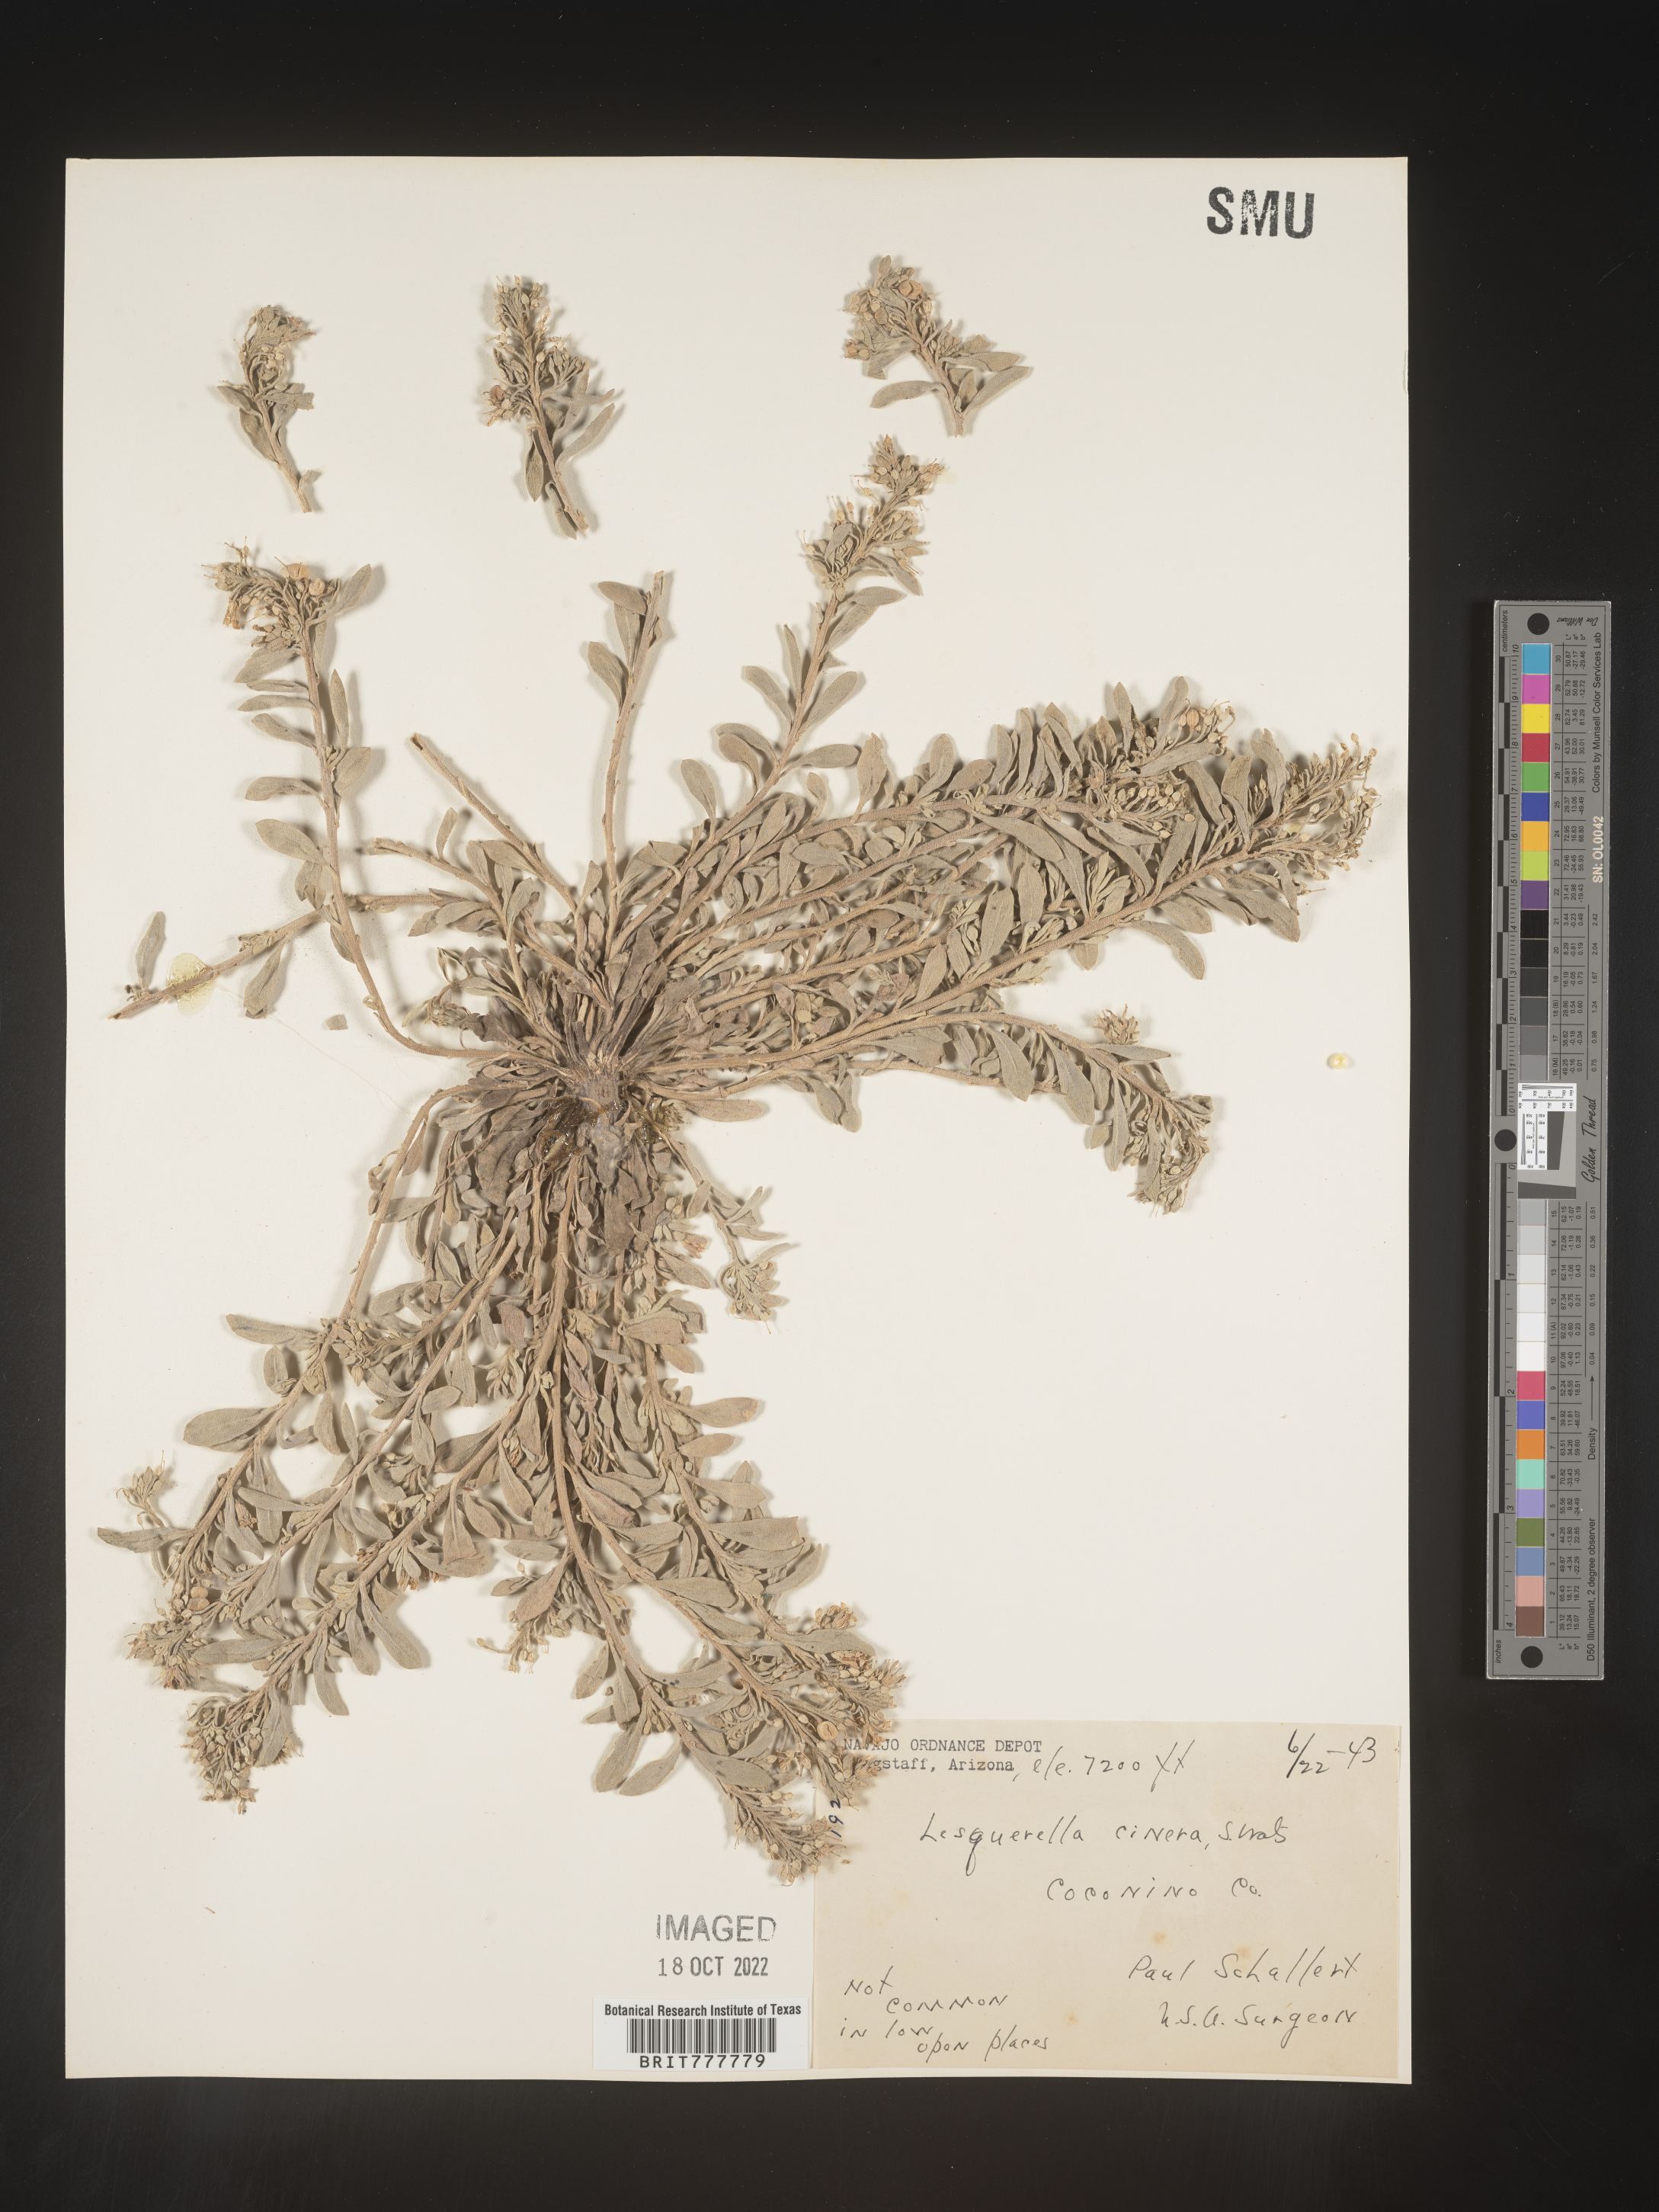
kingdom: Chromista
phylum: Cercozoa
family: Psammonobiotidae
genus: Lesquerella
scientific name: Lesquerella
